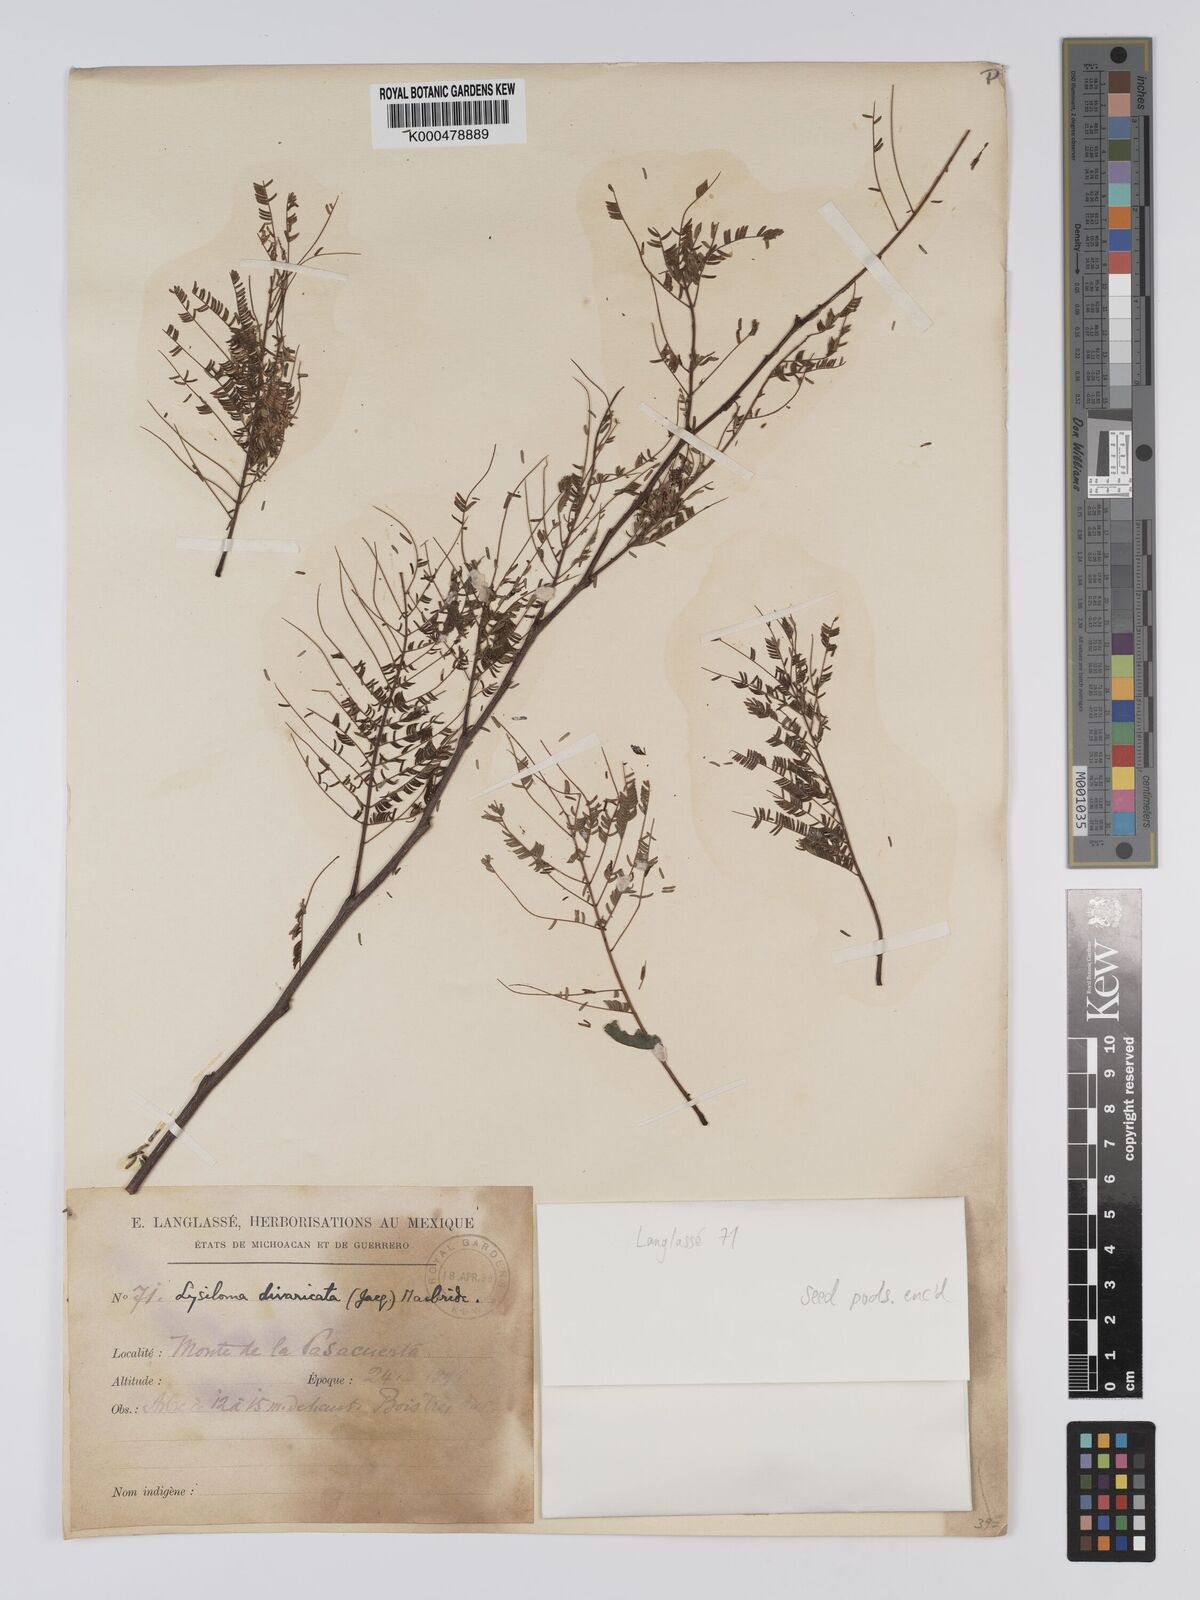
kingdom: Plantae
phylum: Tracheophyta
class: Magnoliopsida
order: Fabales
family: Fabaceae
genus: Lysiloma
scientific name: Lysiloma divaricatum
